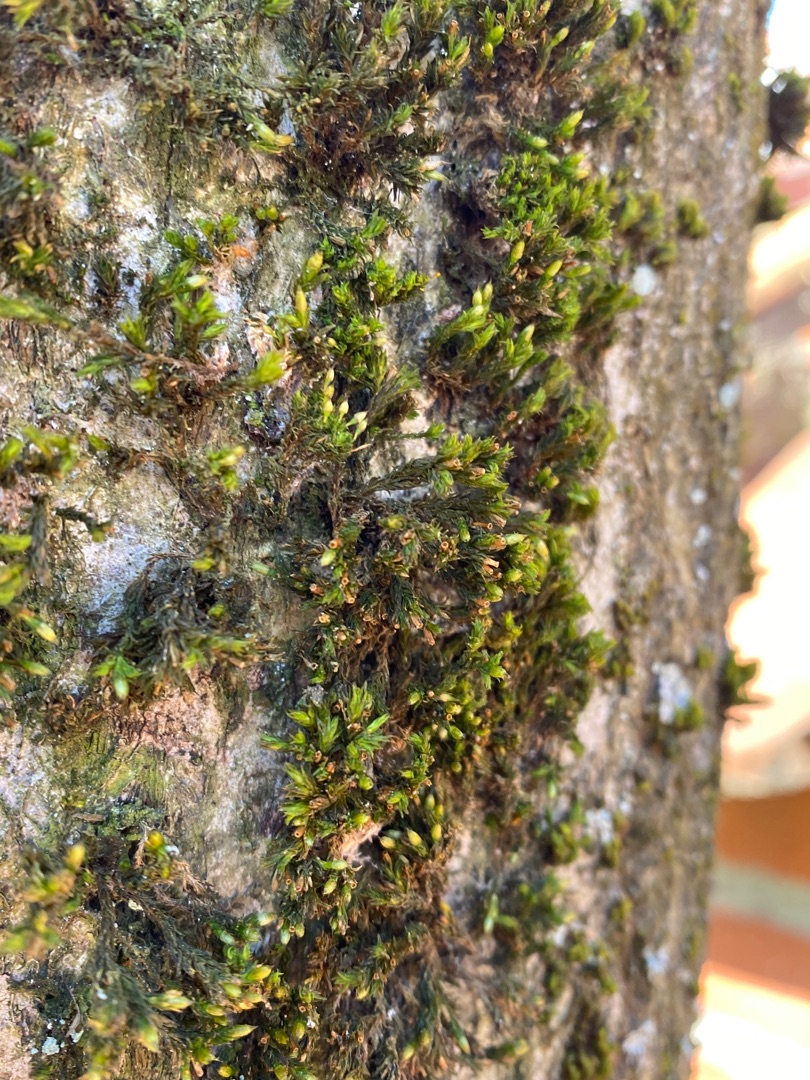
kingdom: Plantae
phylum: Bryophyta
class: Bryopsida
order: Orthotrichales
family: Orthotrichaceae
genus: Lewinskya
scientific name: Lewinskya affinis
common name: Almindelig furehætte
